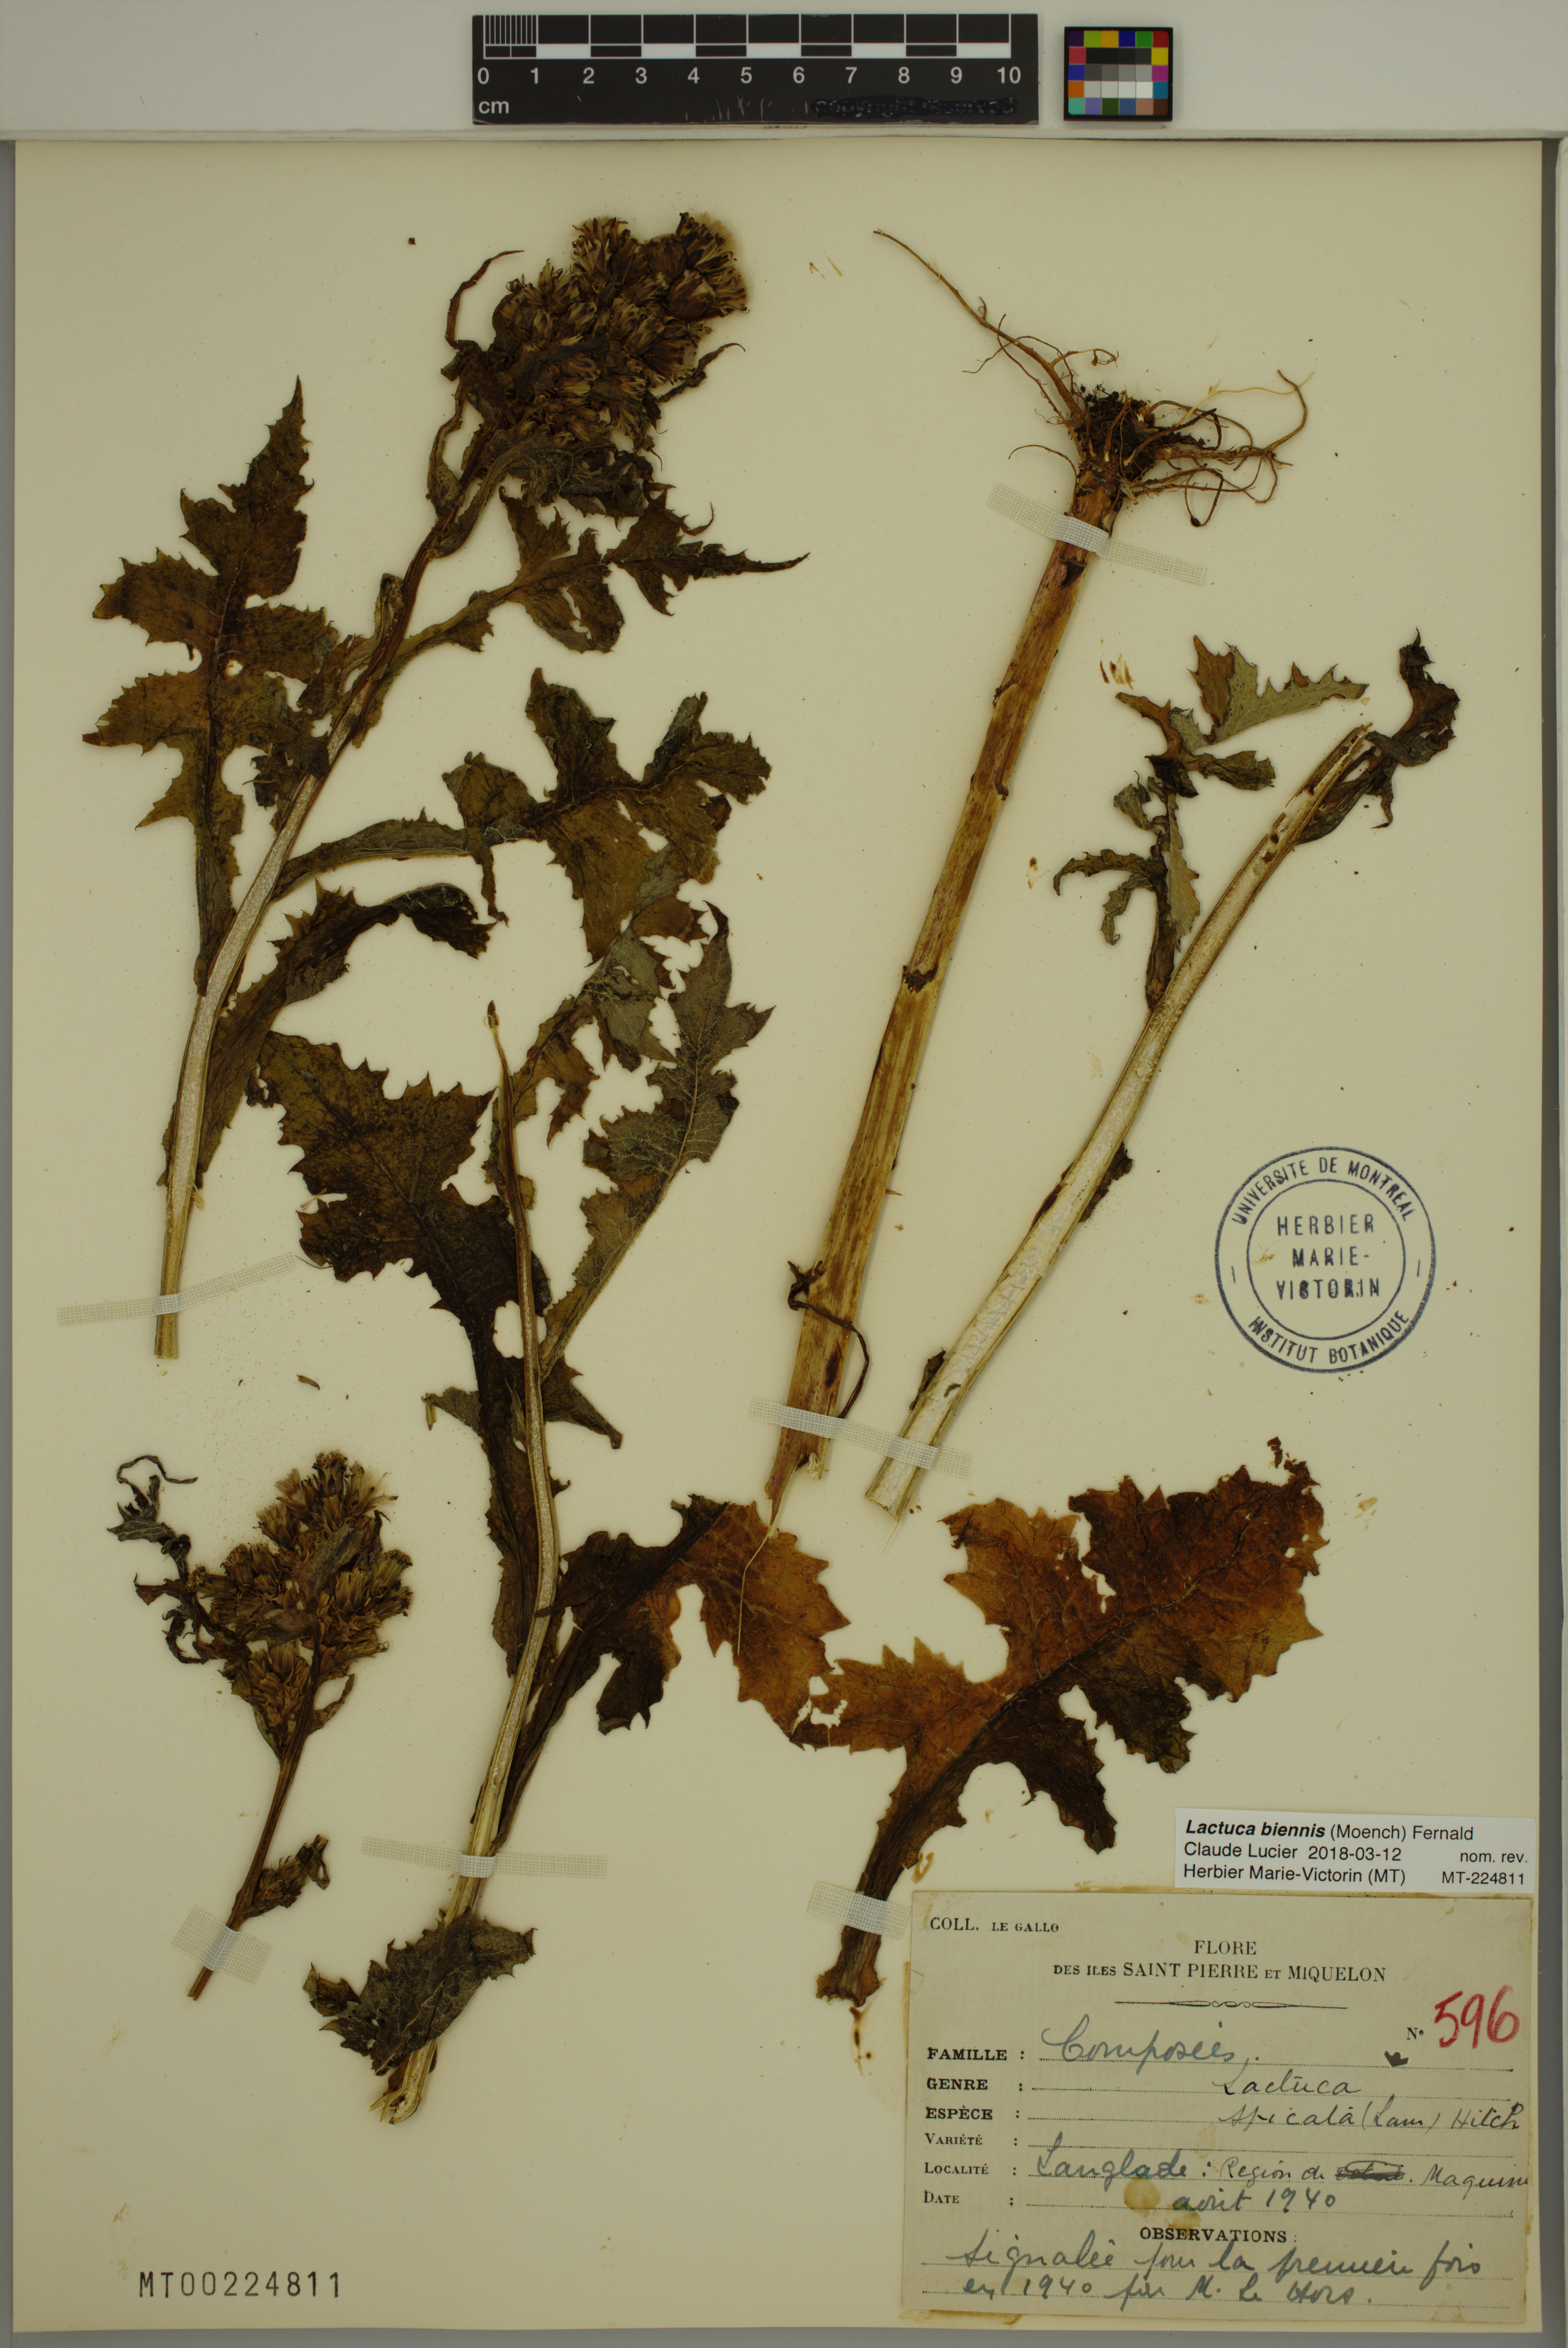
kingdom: Plantae
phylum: Tracheophyta
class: Magnoliopsida
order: Asterales
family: Asteraceae
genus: Lactuca
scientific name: Lactuca biennis
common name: Blue wood lettuce
